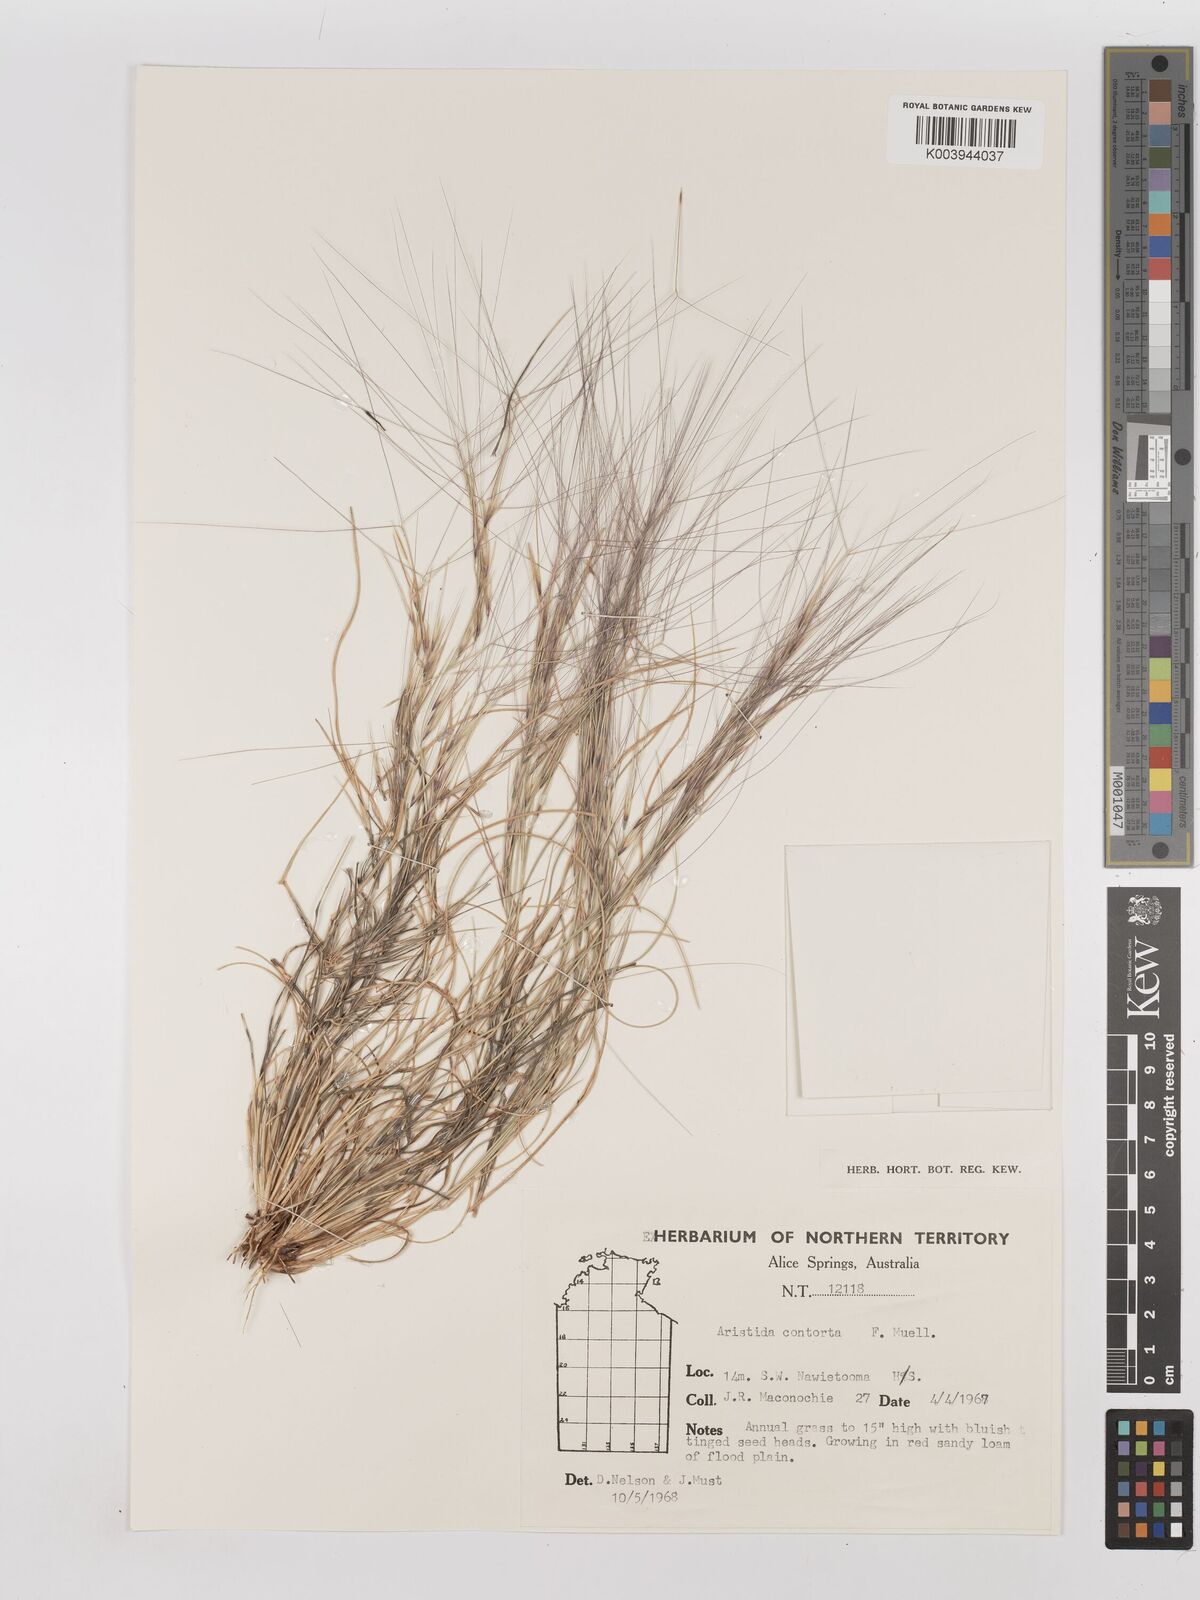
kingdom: Plantae
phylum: Tracheophyta
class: Liliopsida
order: Poales
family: Poaceae
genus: Aristida
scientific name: Aristida contorta
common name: Bunch kerosene grass
